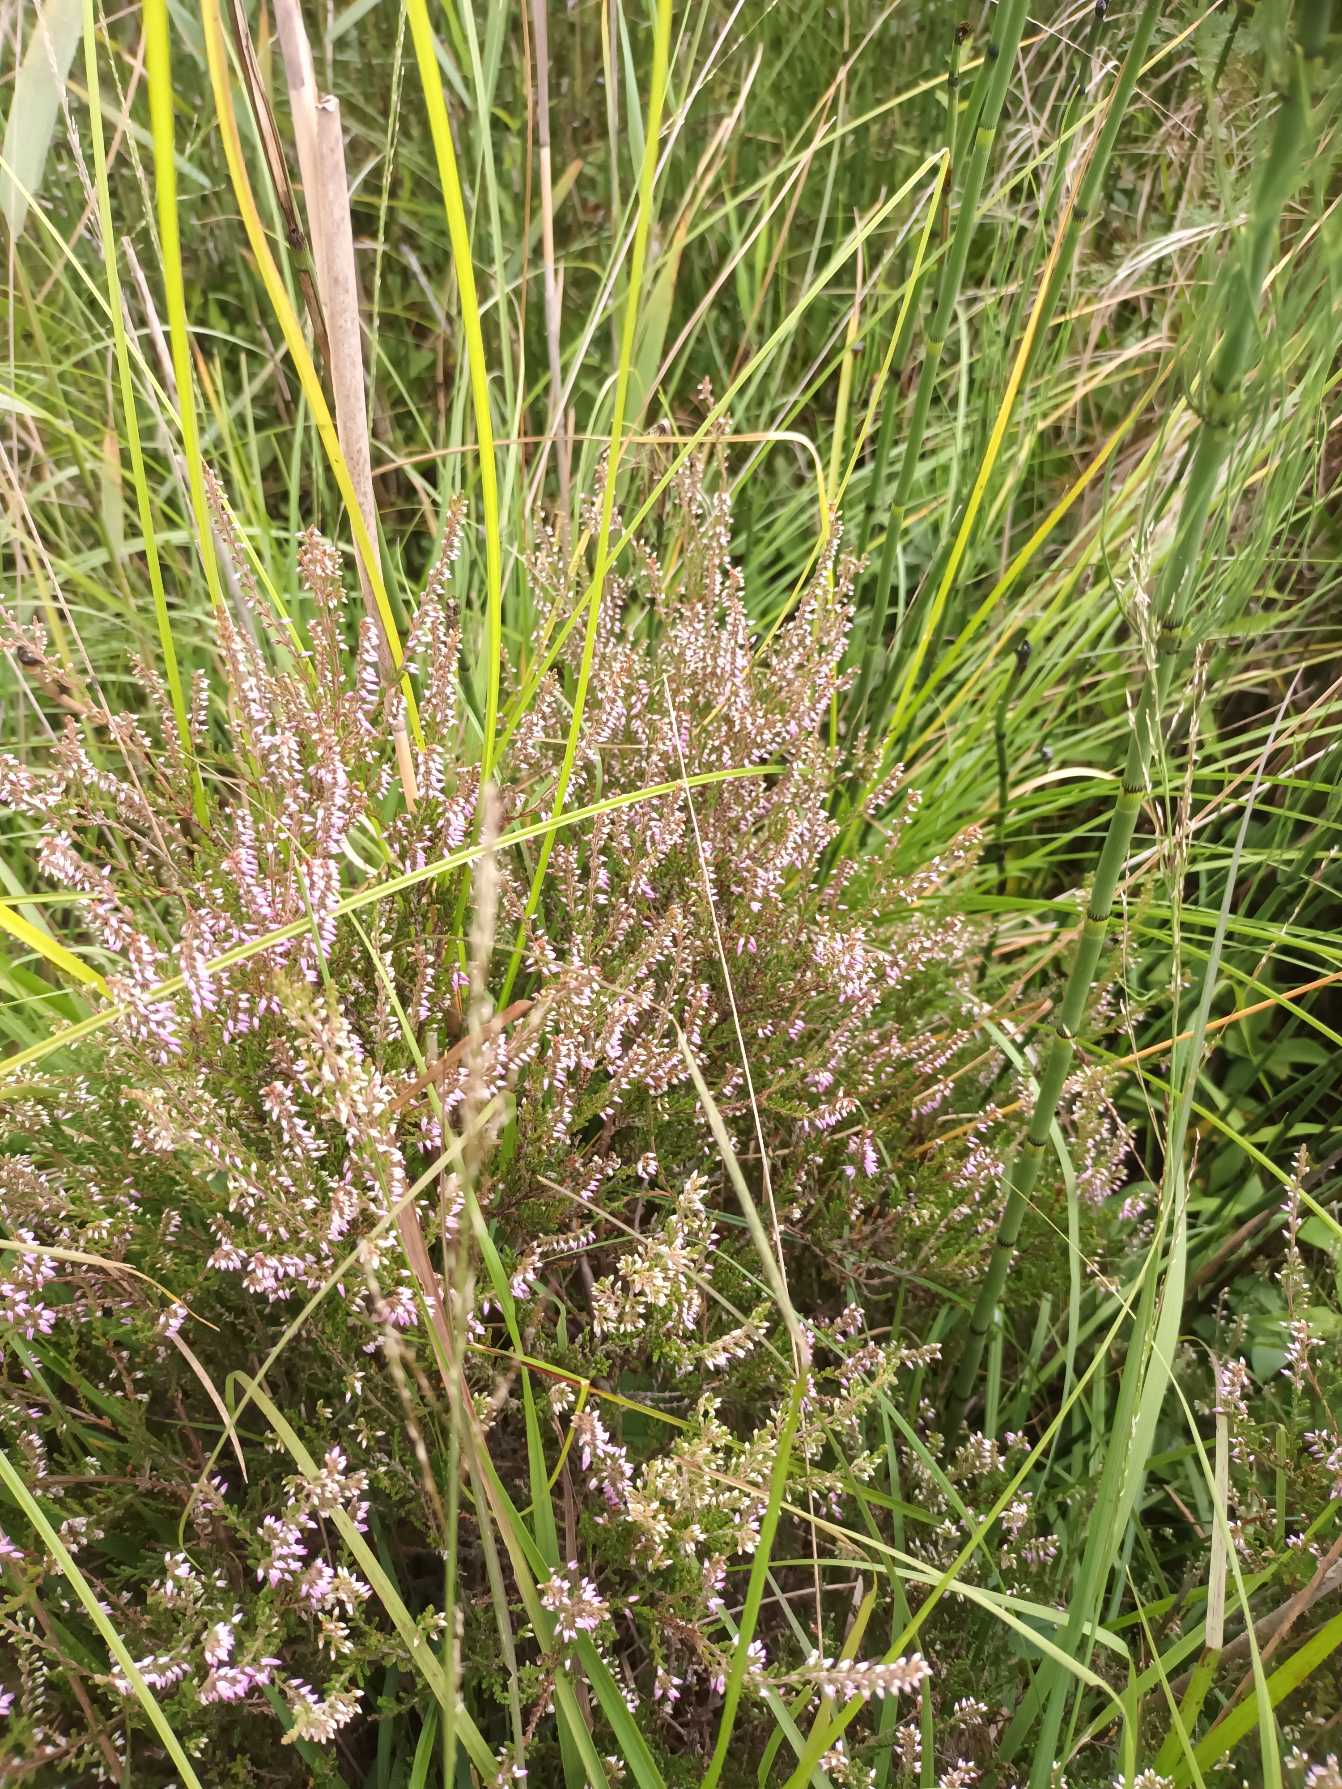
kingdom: Plantae
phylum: Tracheophyta
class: Magnoliopsida
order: Ericales
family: Ericaceae
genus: Calluna
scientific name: Calluna vulgaris
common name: Hedelyng
